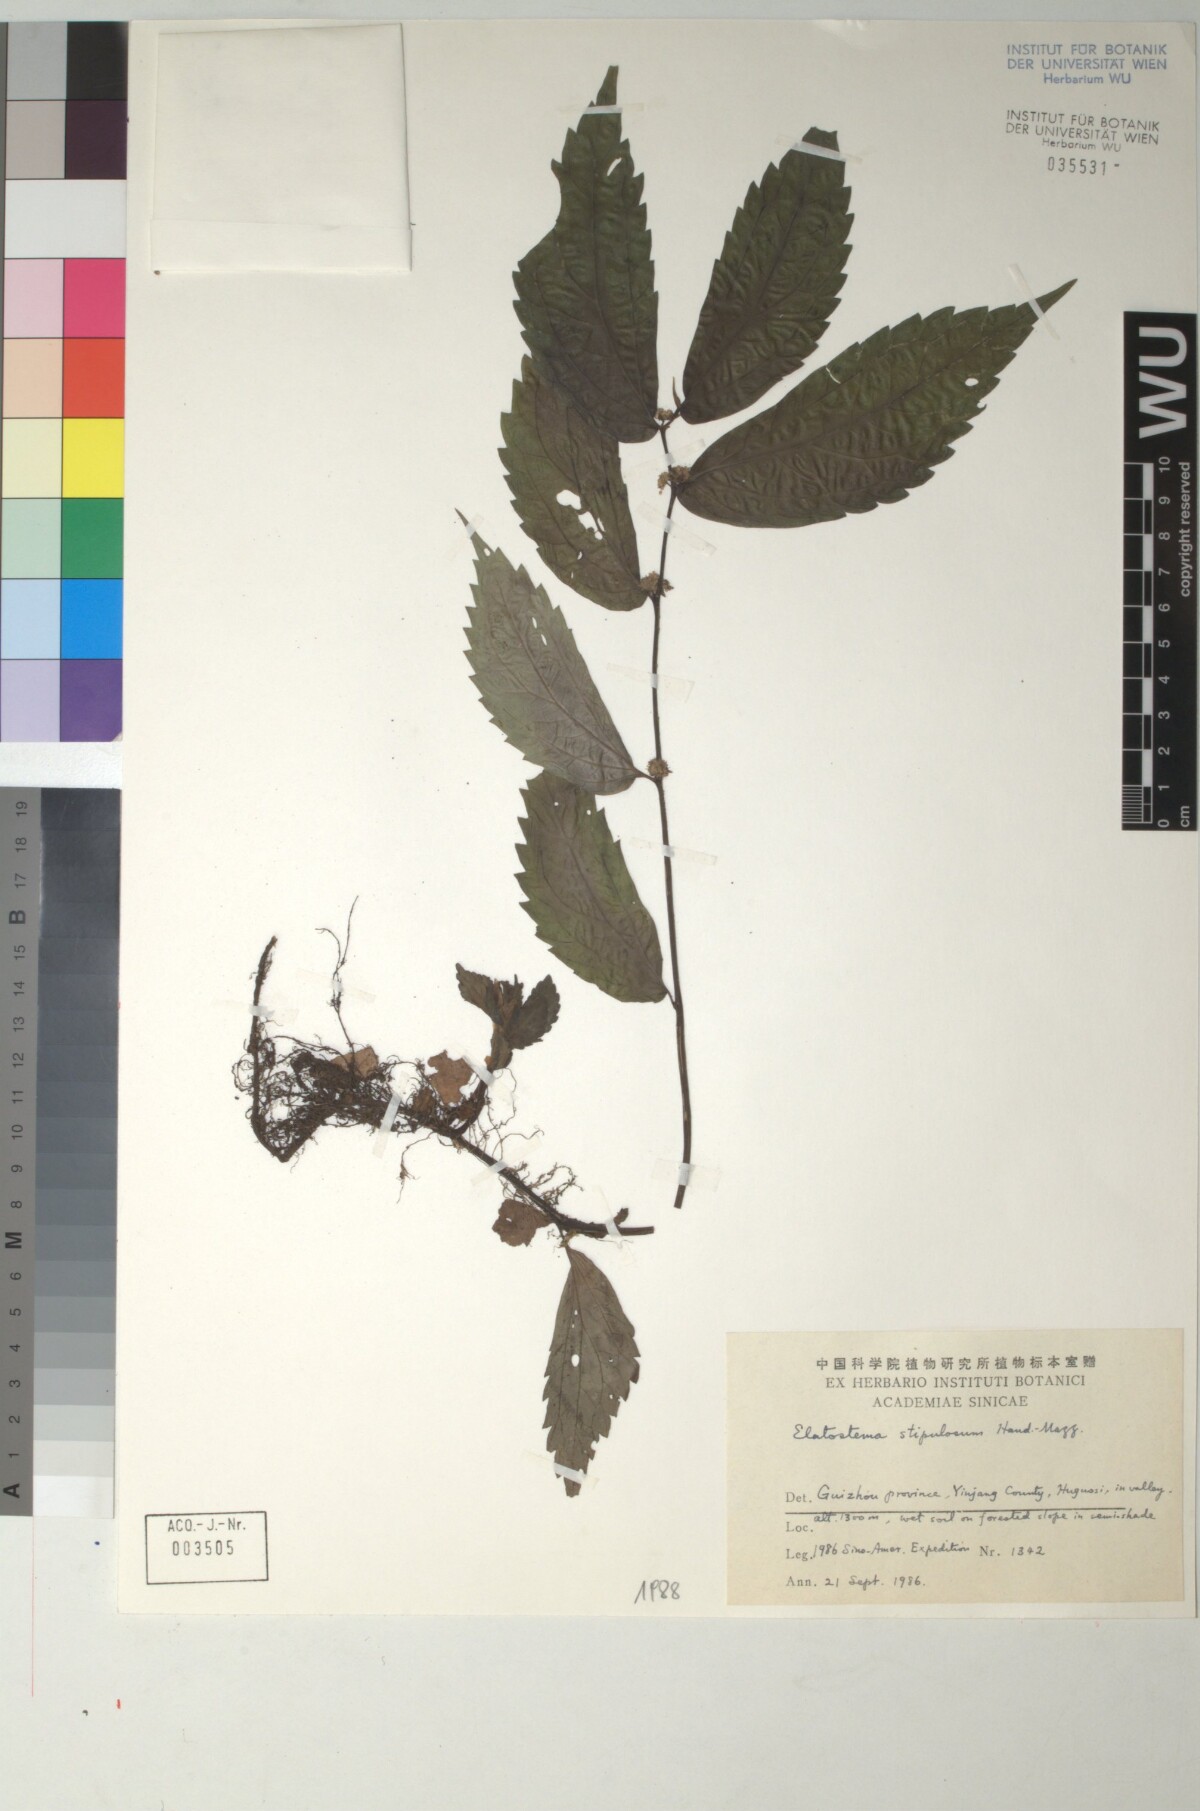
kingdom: Plantae
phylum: Tracheophyta
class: Magnoliopsida
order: Rosales
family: Urticaceae
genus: Elatostema
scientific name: Elatostema nasutum
